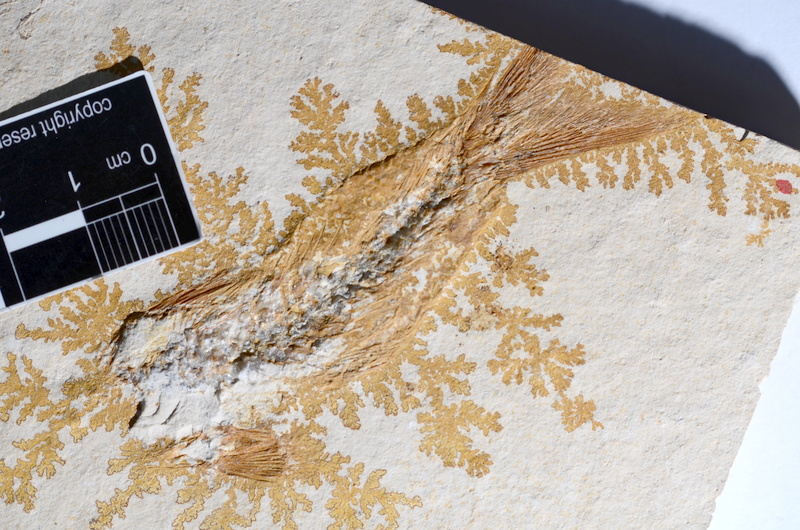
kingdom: Animalia
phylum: Chordata
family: Ascalaboidae
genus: Tharsis
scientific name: Tharsis dubius
